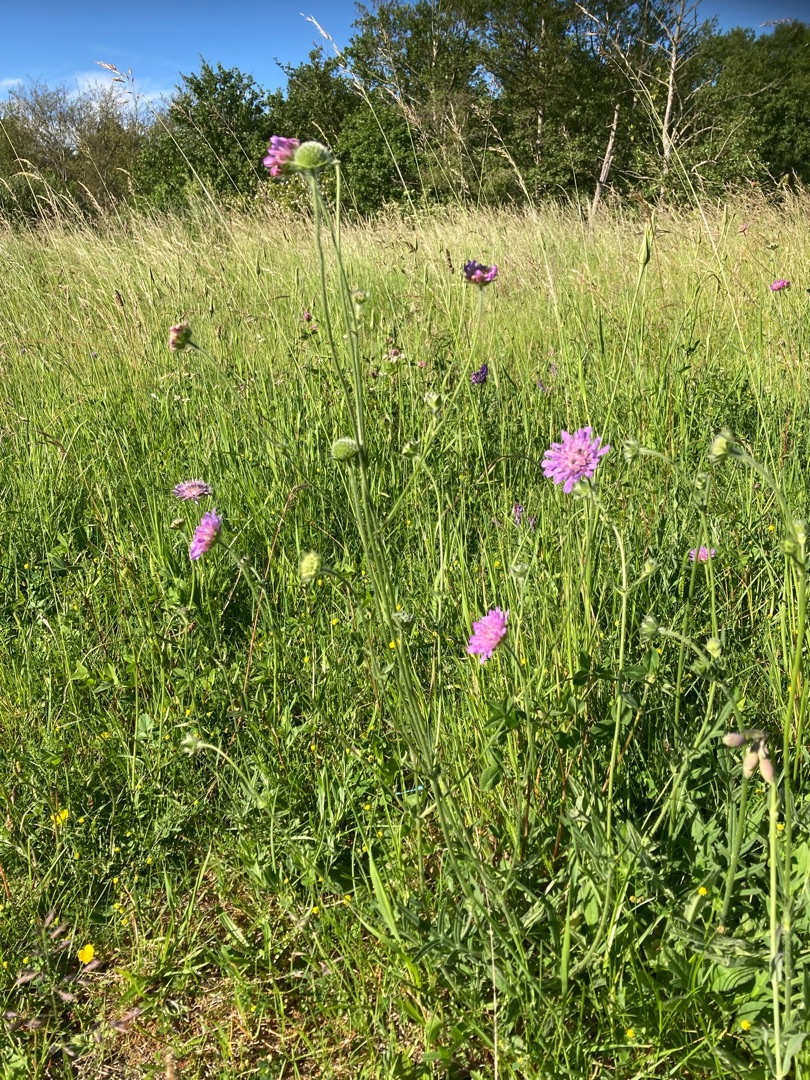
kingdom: Plantae
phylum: Tracheophyta
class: Magnoliopsida
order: Dipsacales
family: Caprifoliaceae
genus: Knautia
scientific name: Knautia arvensis
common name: Blåhat
